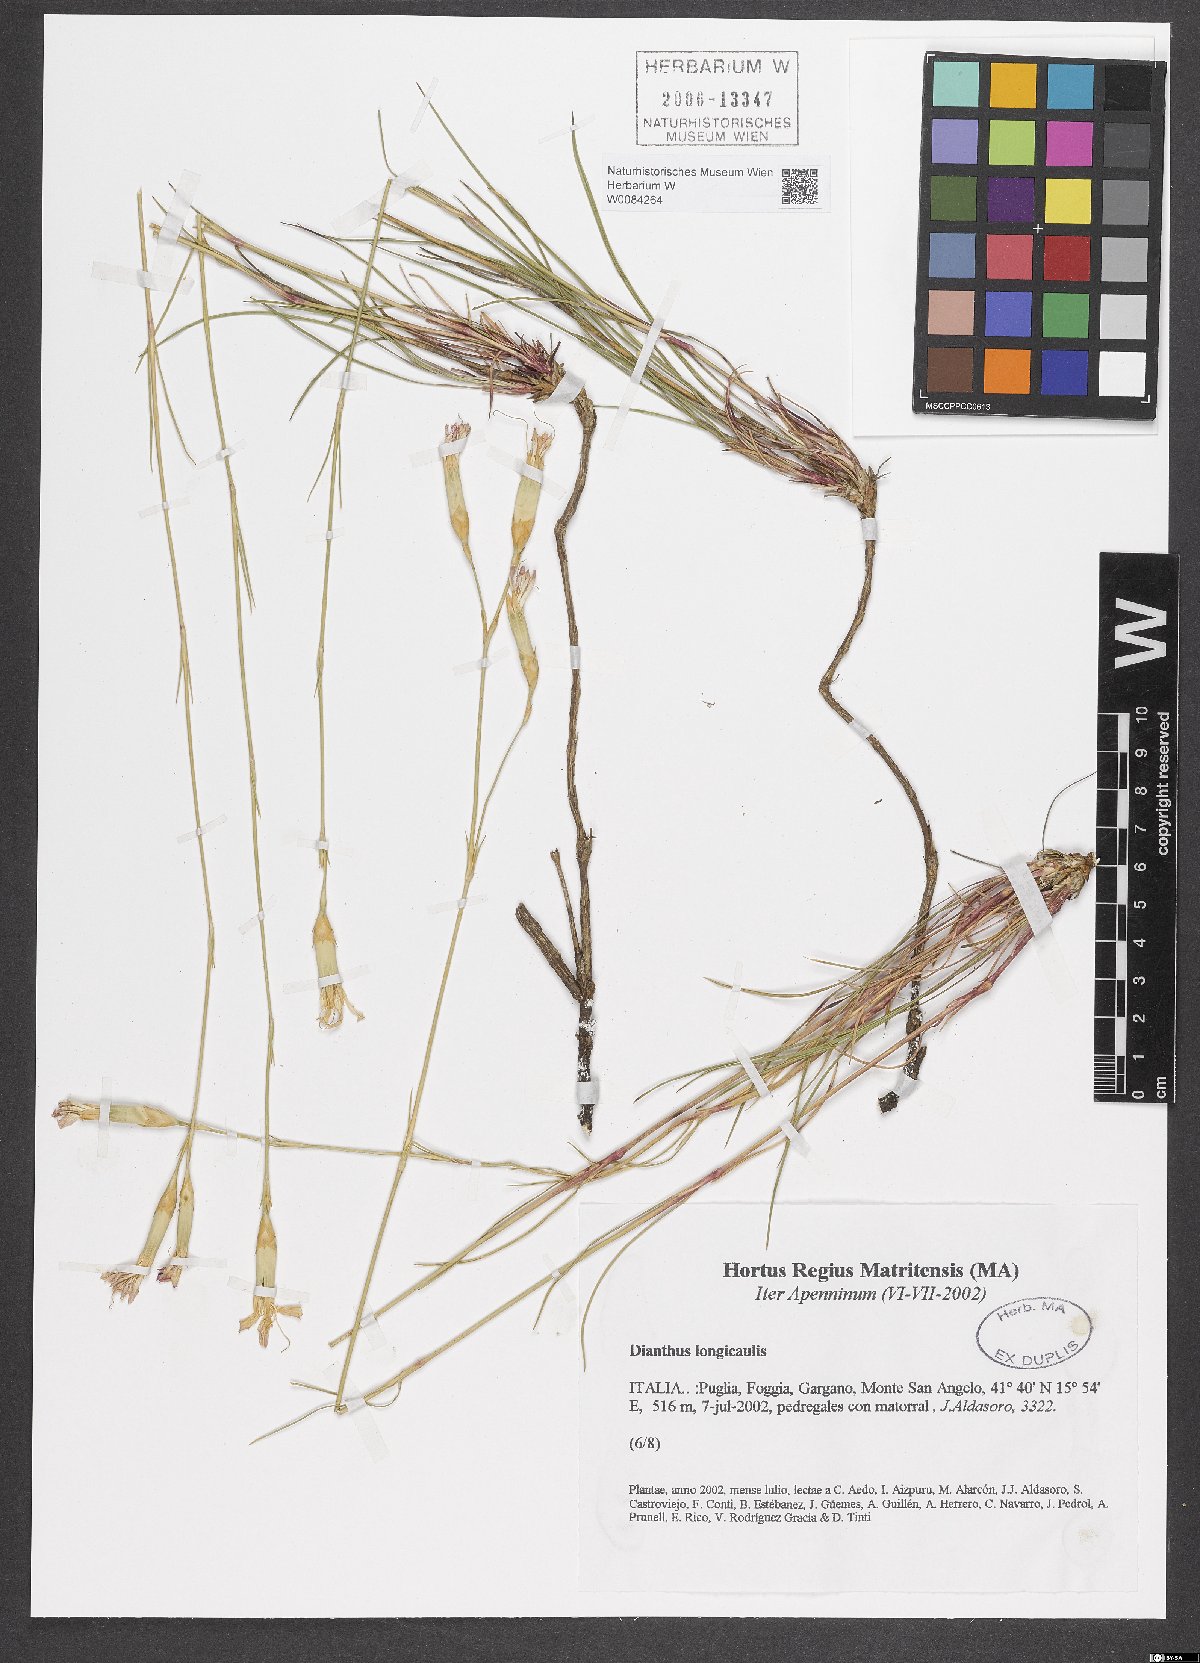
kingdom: Plantae
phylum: Tracheophyta
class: Magnoliopsida
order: Caryophyllales
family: Caryophyllaceae
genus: Dianthus
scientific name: Dianthus virgineus
